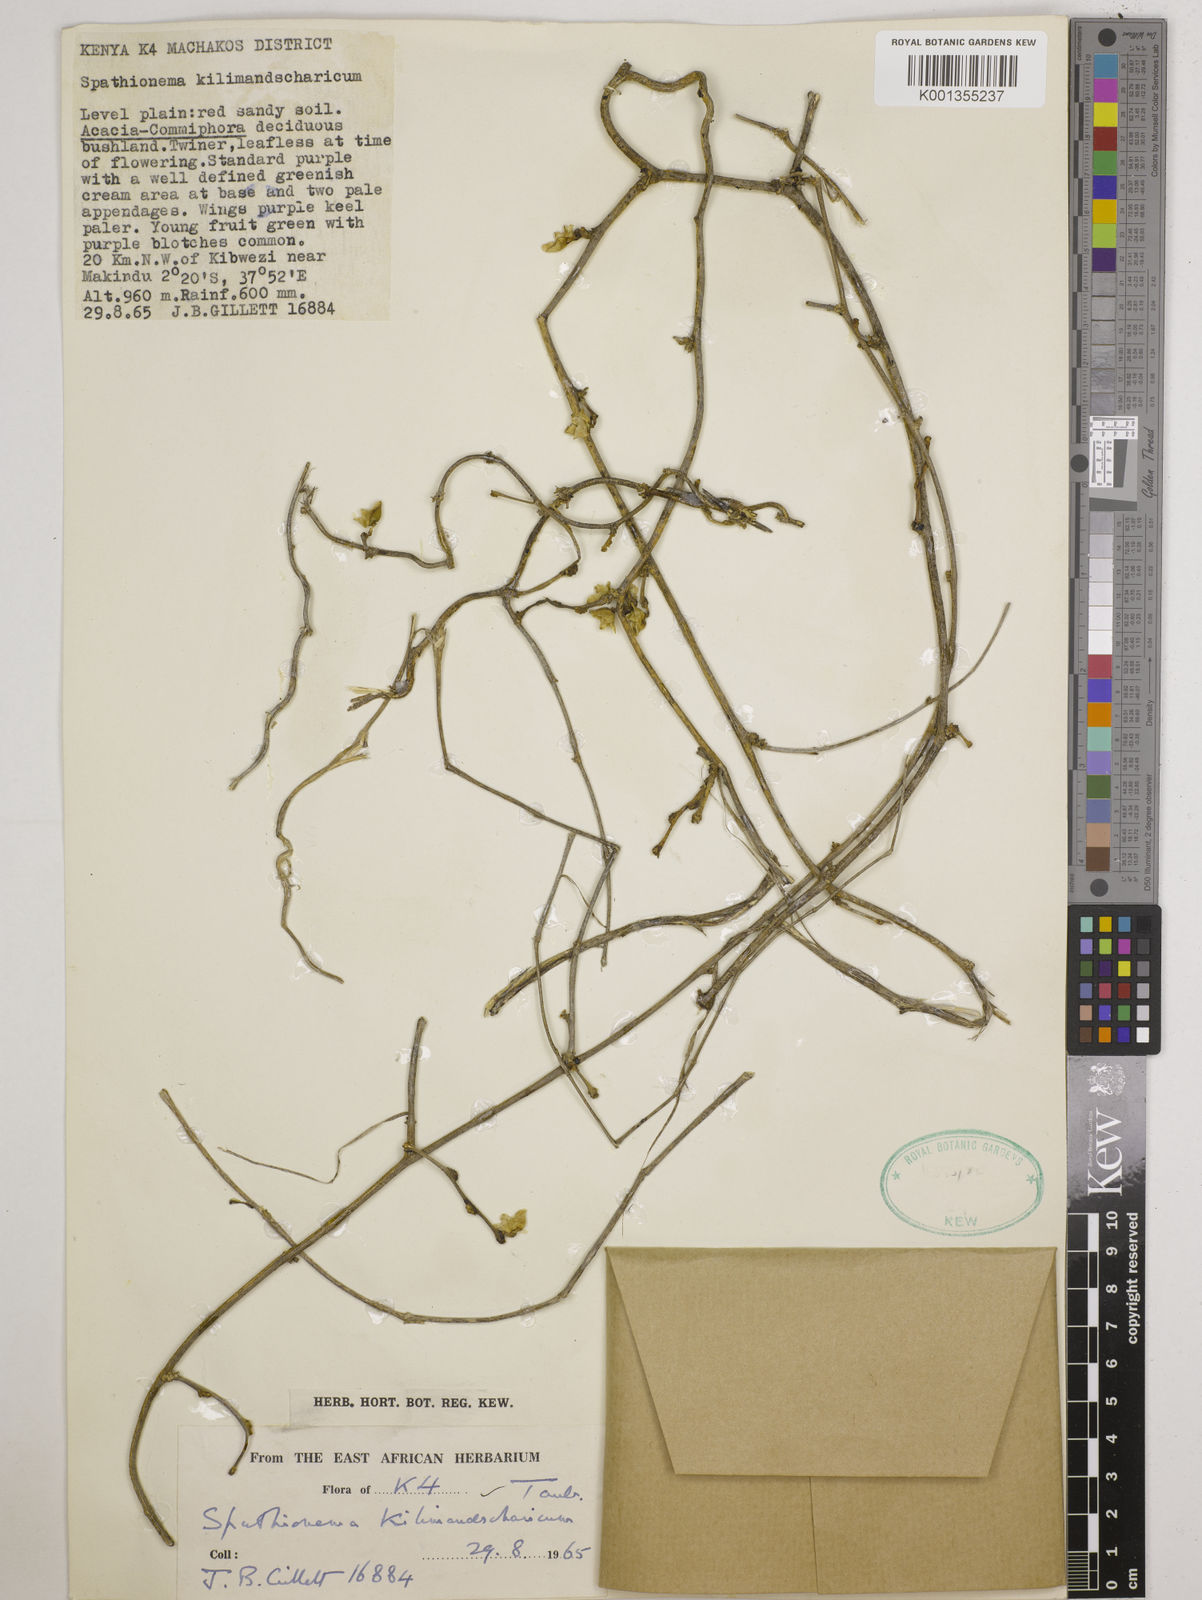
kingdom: Plantae
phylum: Tracheophyta
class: Magnoliopsida
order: Fabales
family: Fabaceae
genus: Spathionema
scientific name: Spathionema kilimandscharicum
